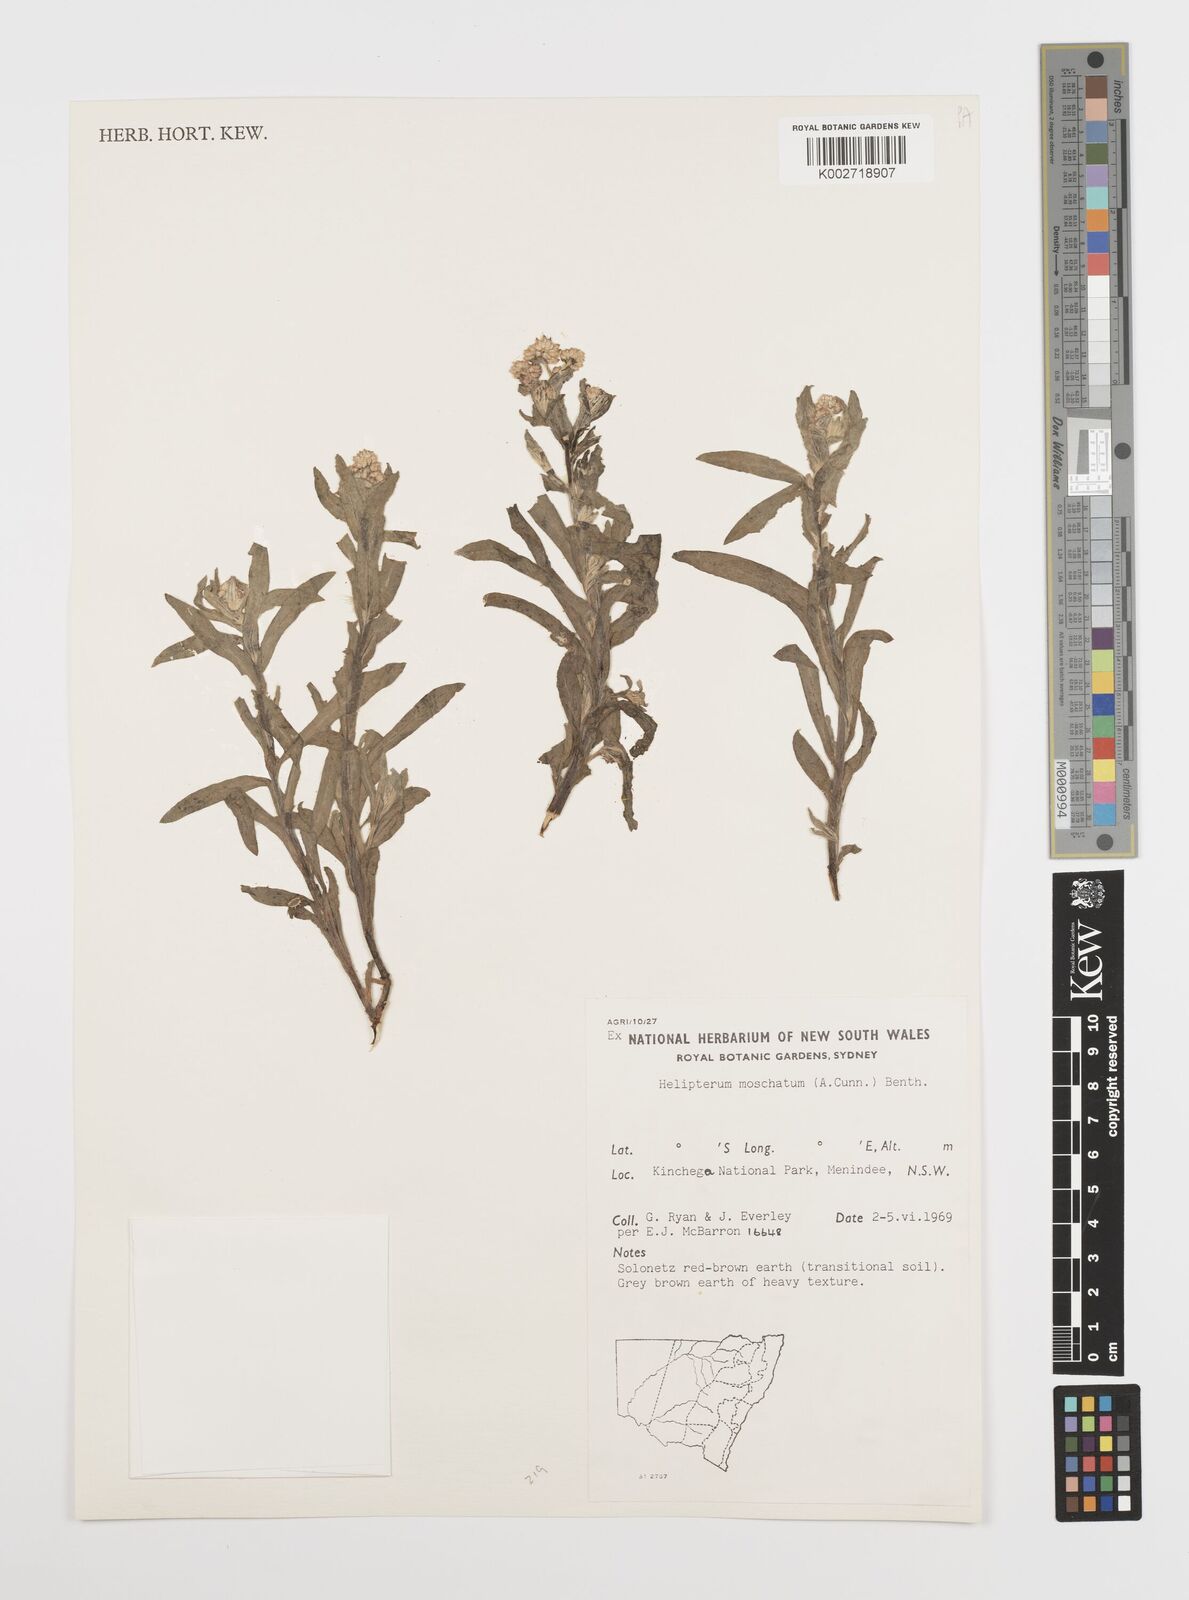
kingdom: Plantae
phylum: Tracheophyta
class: Magnoliopsida
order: Asterales
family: Asteraceae
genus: Rhodanthe
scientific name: Rhodanthe moschata
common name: Musk sunray
